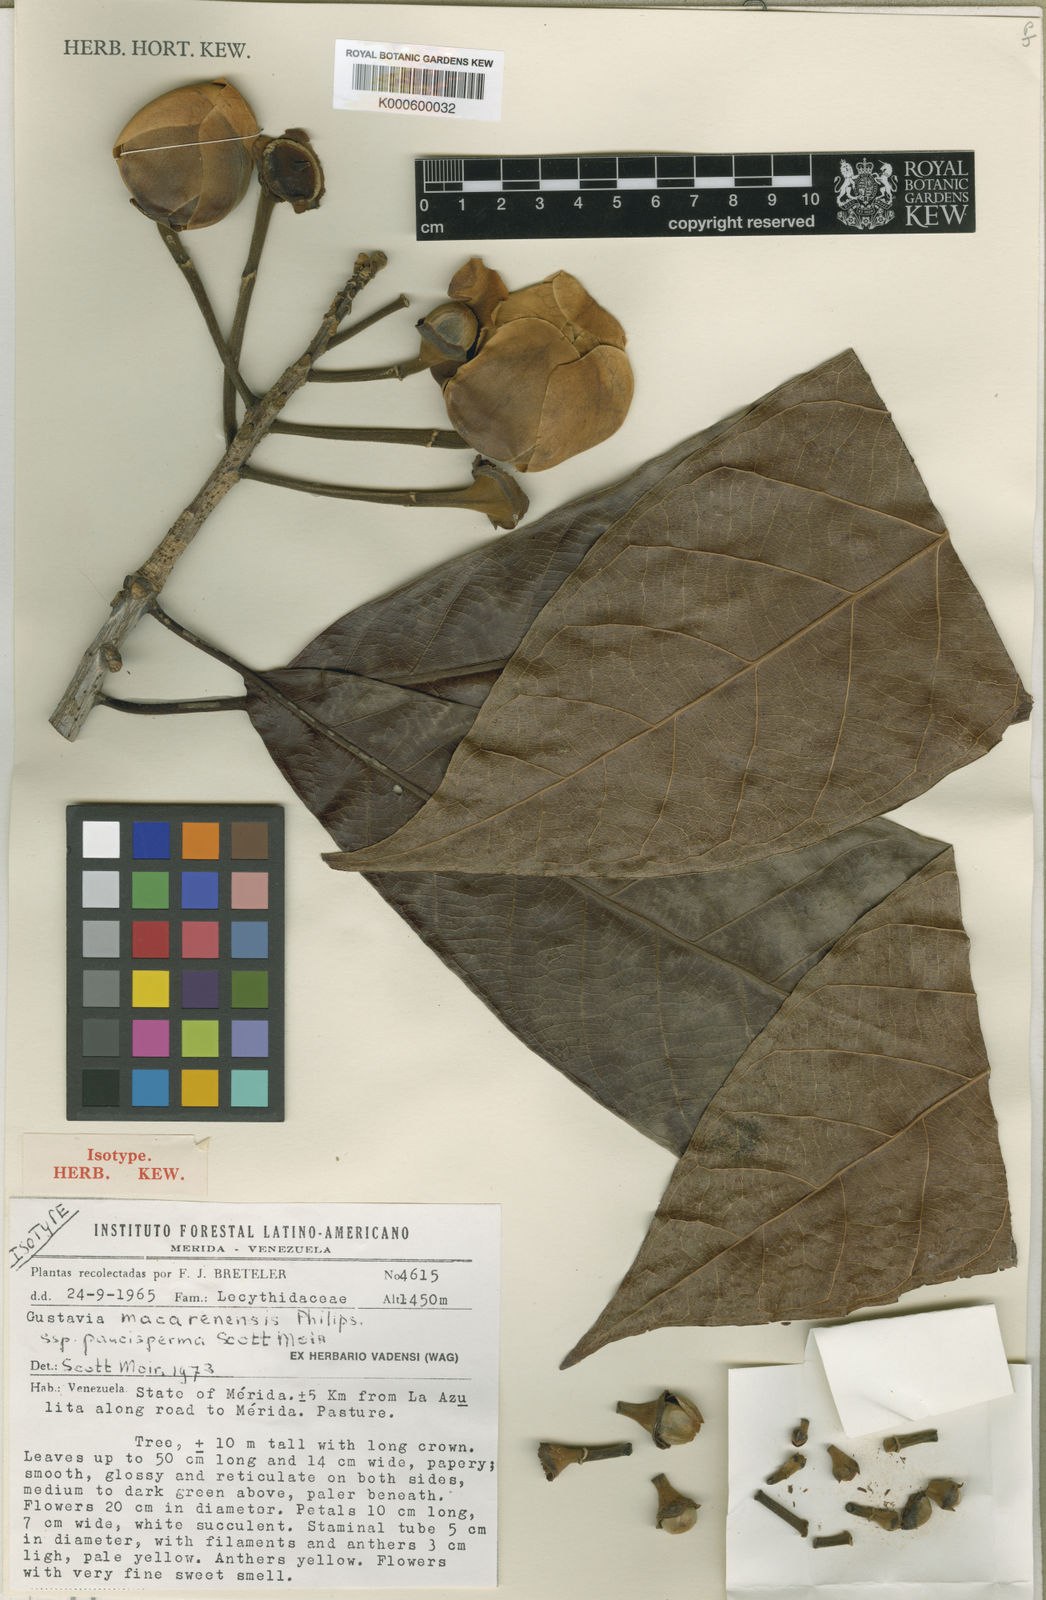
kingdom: Plantae
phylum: Tracheophyta
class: Magnoliopsida
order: Ericales
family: Lecythidaceae
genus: Gustavia
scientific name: Gustavia macarenensis
